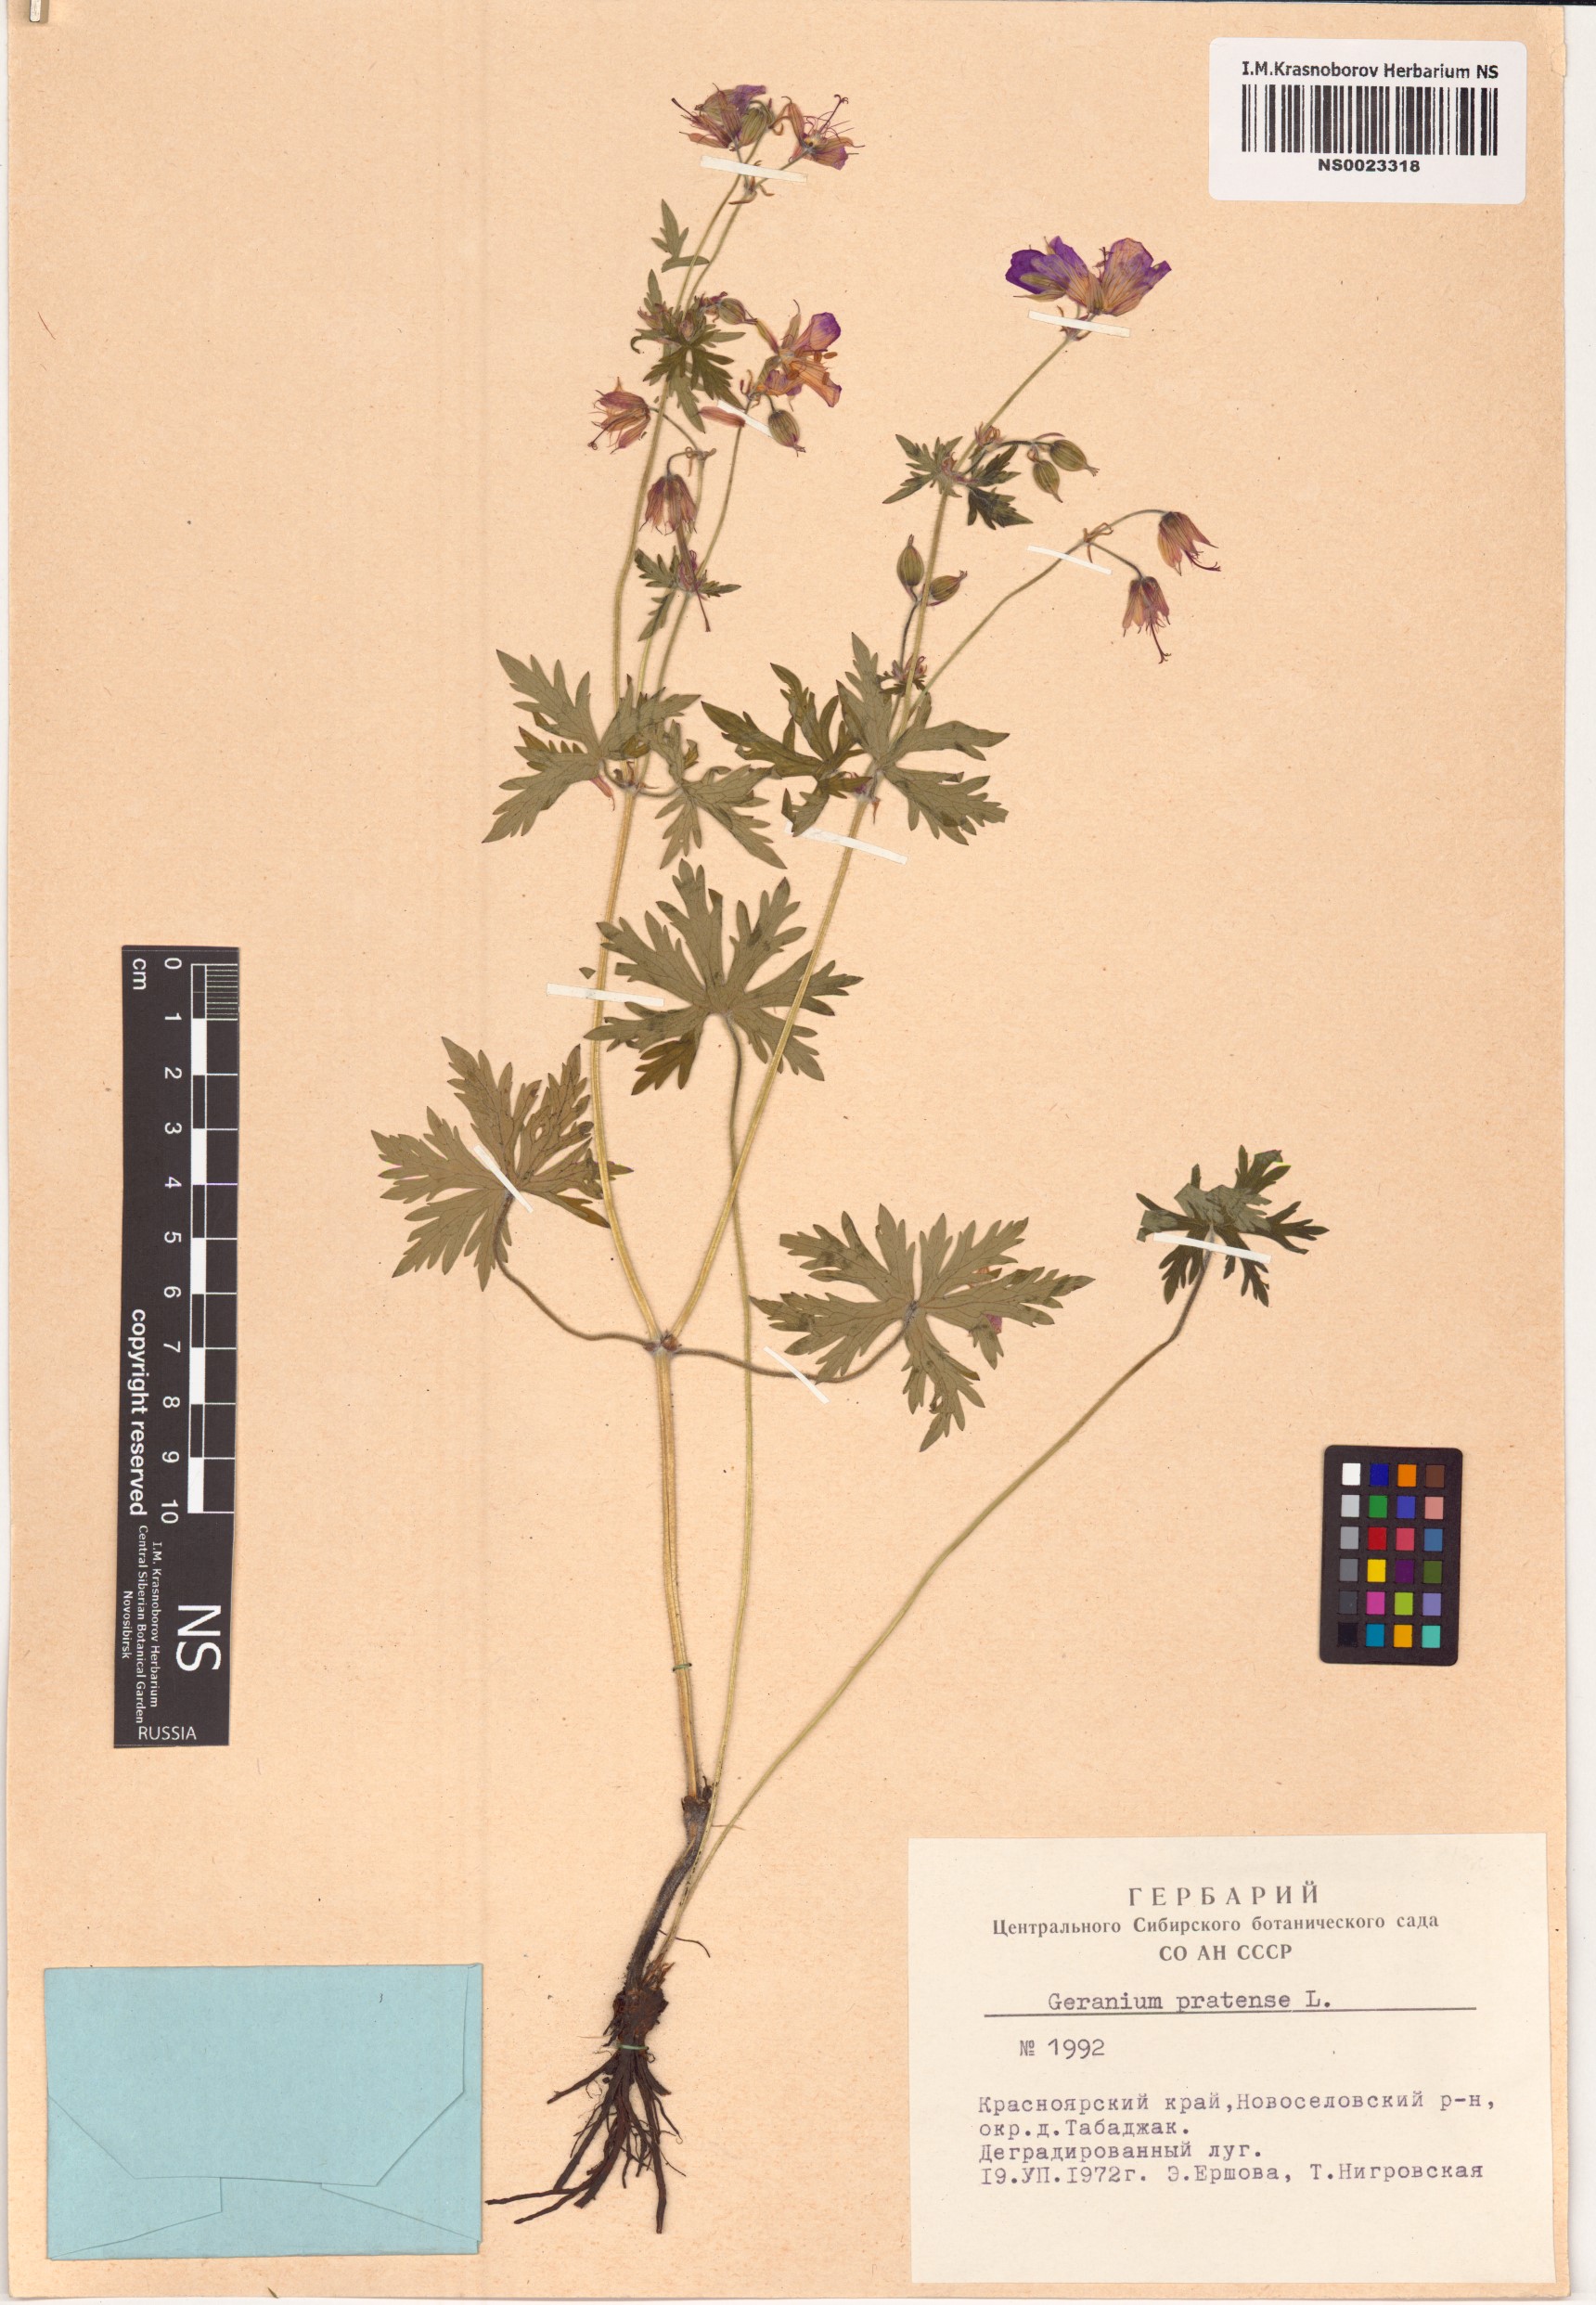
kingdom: Plantae
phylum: Tracheophyta
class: Magnoliopsida
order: Geraniales
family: Geraniaceae
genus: Geranium
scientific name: Geranium pratense
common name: Meadow crane's-bill
